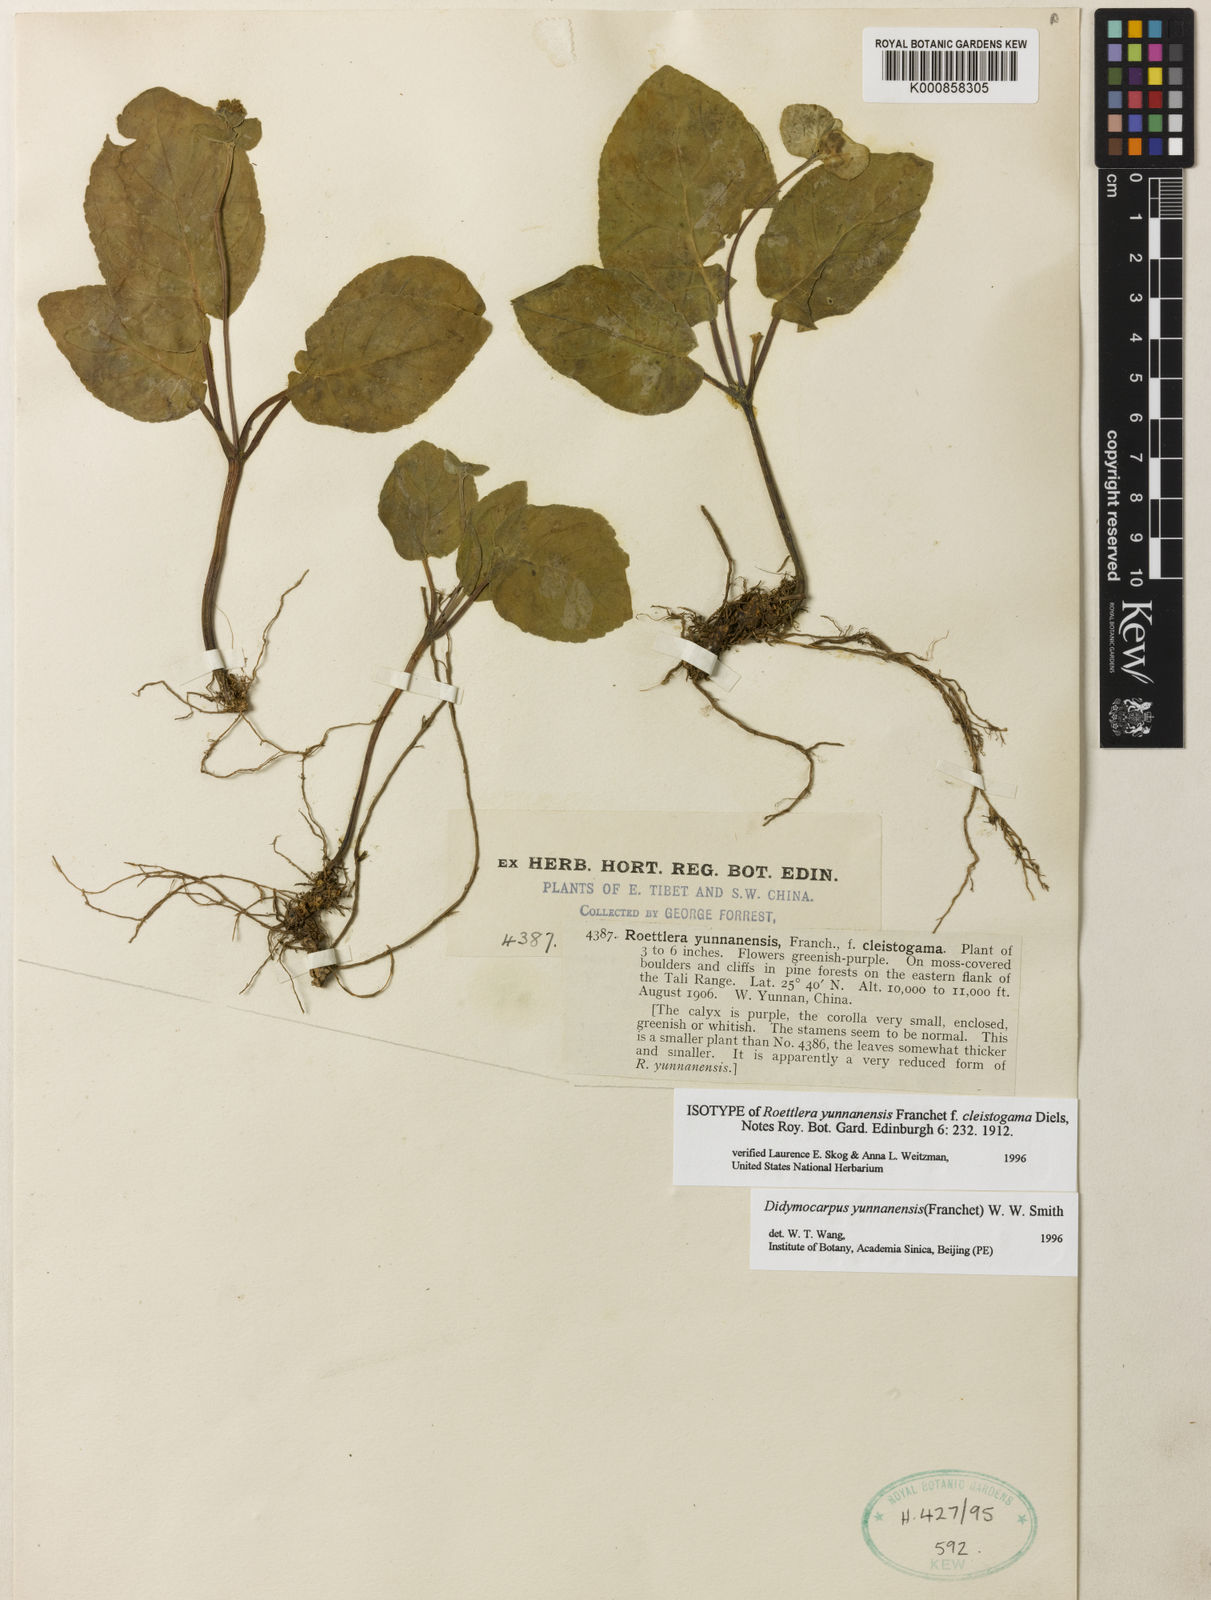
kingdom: Plantae
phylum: Tracheophyta
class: Magnoliopsida
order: Lamiales
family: Gesneriaceae
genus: Didymocarpus
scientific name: Didymocarpus yunnanensis
